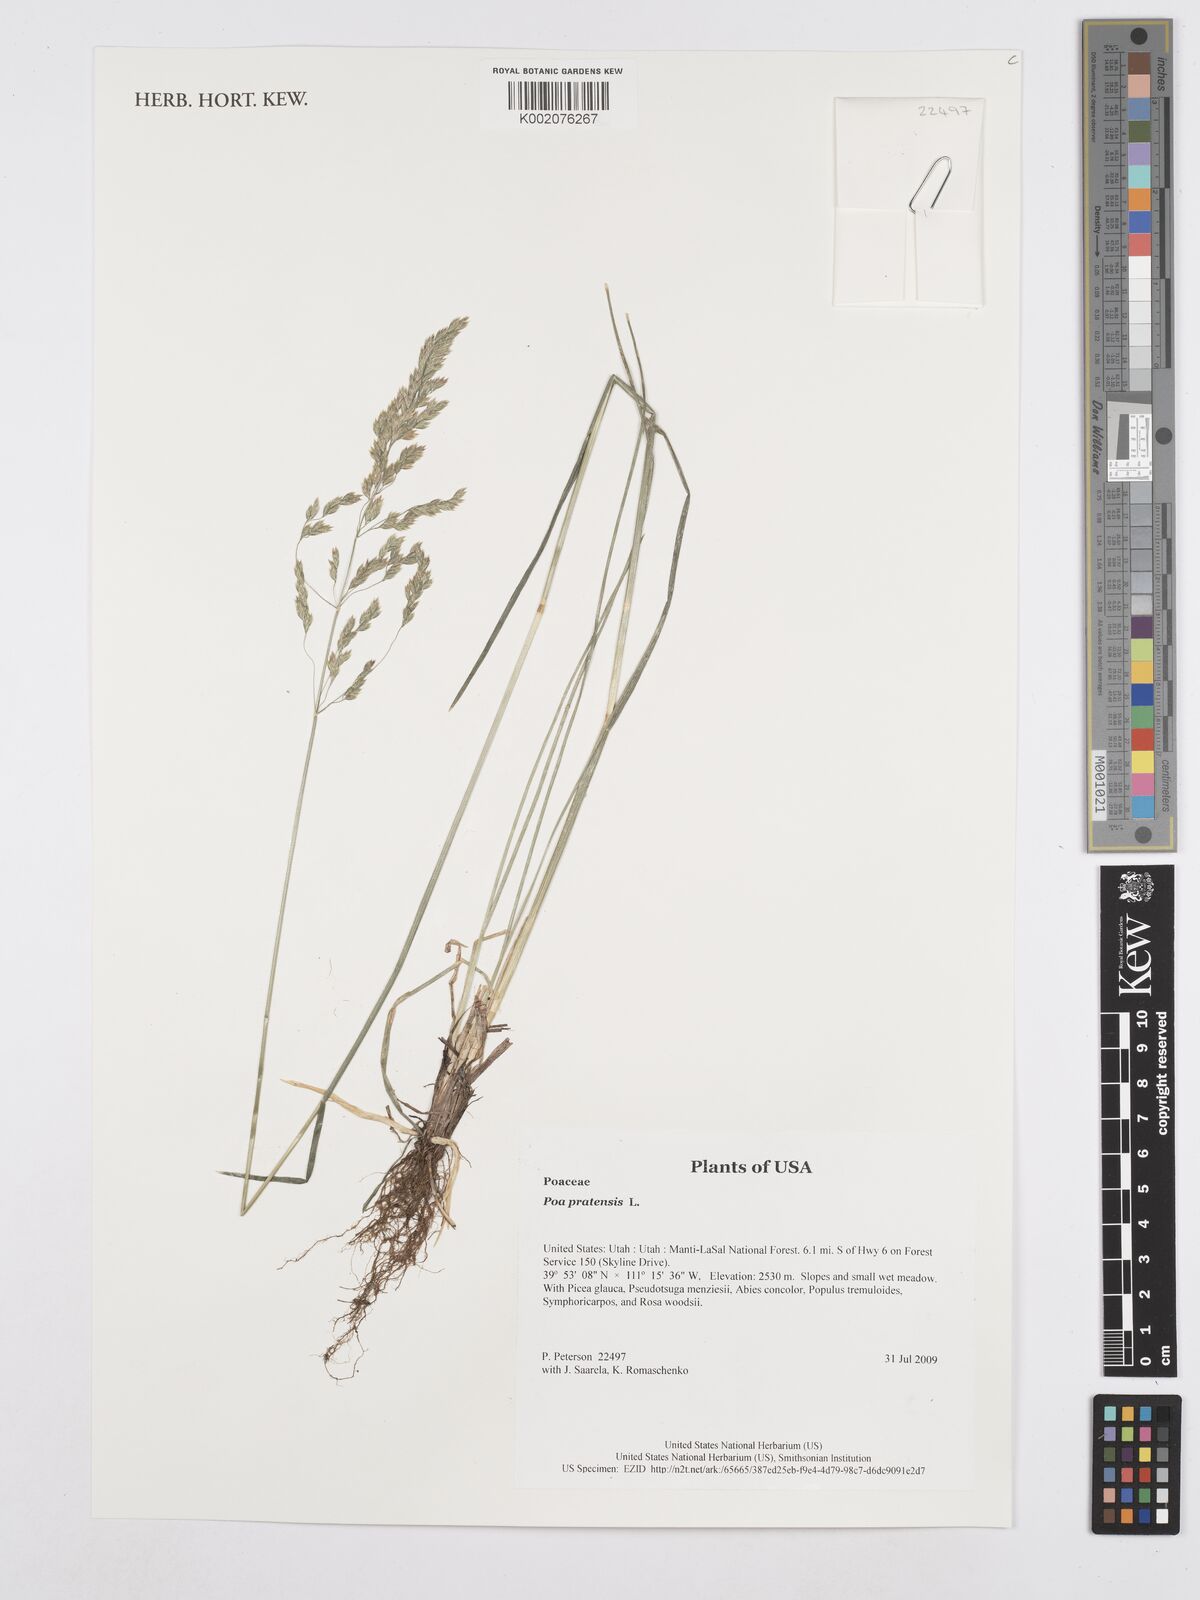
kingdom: Plantae
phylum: Tracheophyta
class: Liliopsida
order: Poales
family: Poaceae
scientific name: Poaceae
